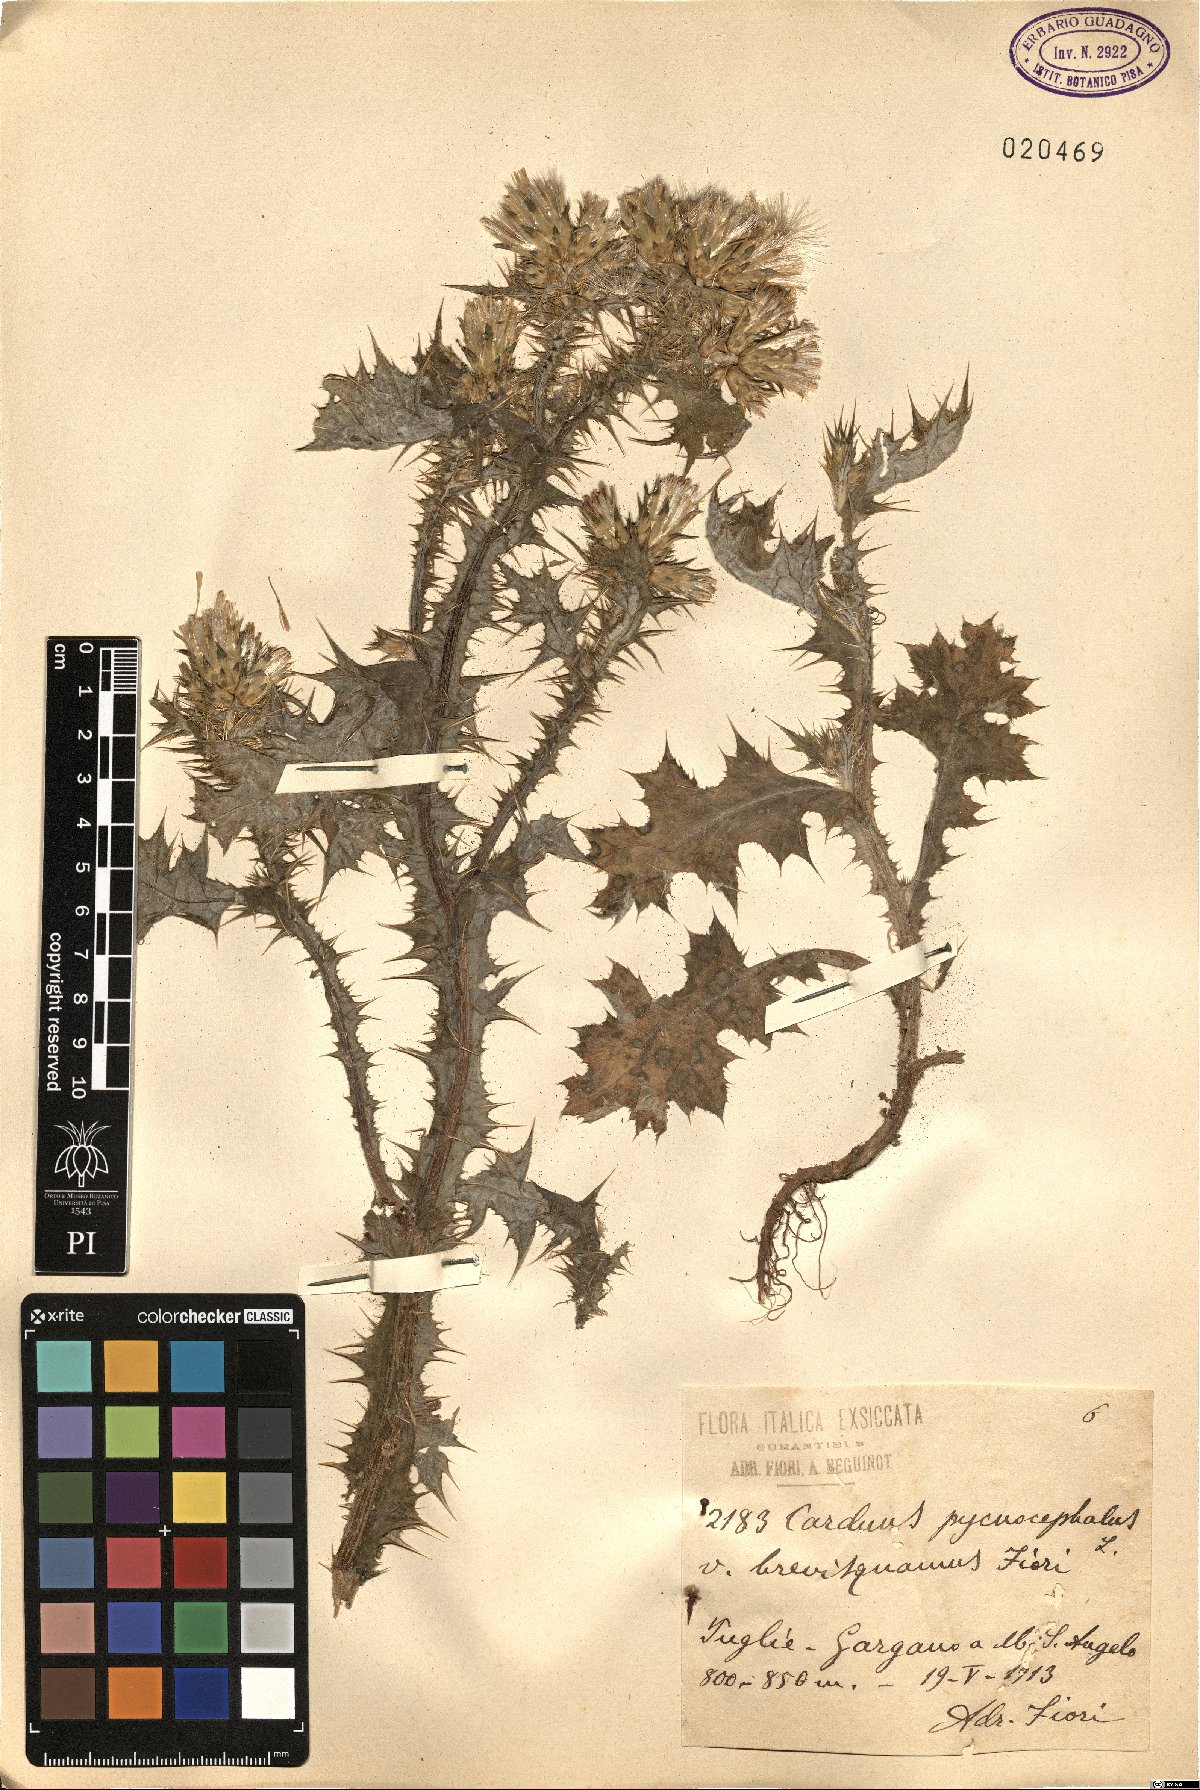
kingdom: Plantae
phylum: Tracheophyta
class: Magnoliopsida
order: Asterales
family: Asteraceae
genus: Carduus
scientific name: Carduus pycnocephalus
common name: Plymouth thistle
